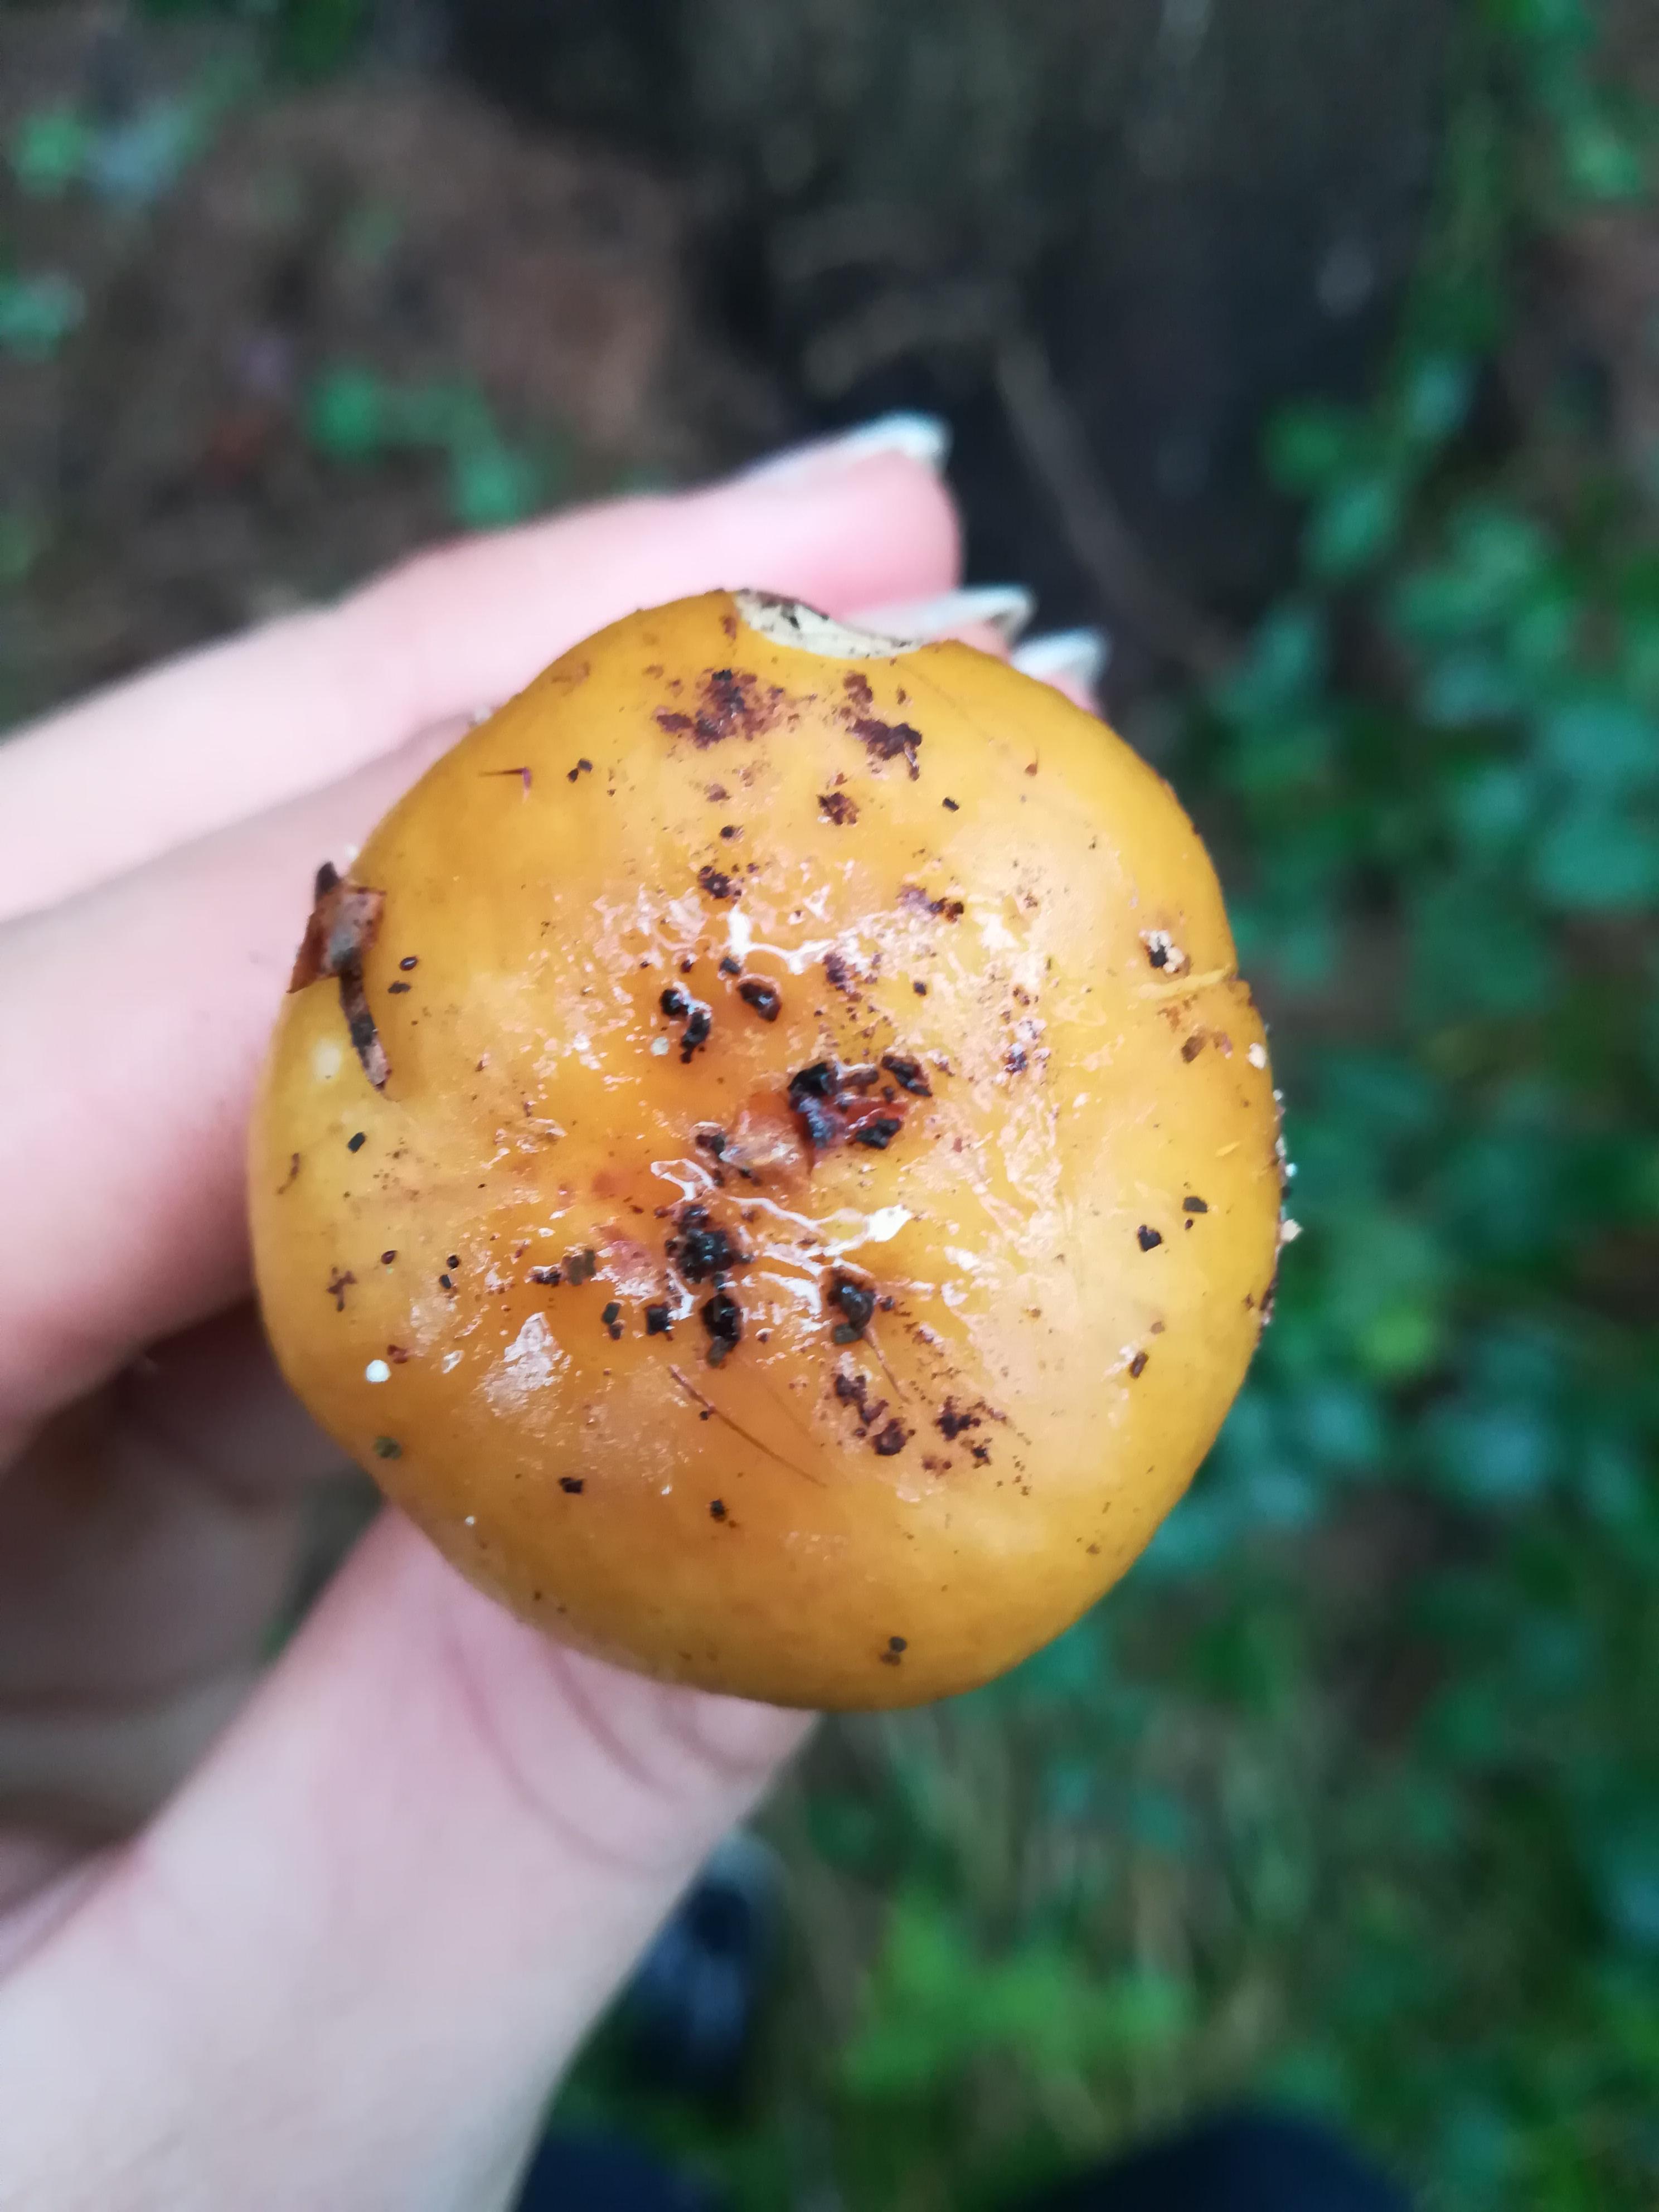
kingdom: Fungi
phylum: Basidiomycota
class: Agaricomycetes
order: Russulales
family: Russulaceae
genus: Russula
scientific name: Russula ochroleuca
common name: okkergul skørhat
